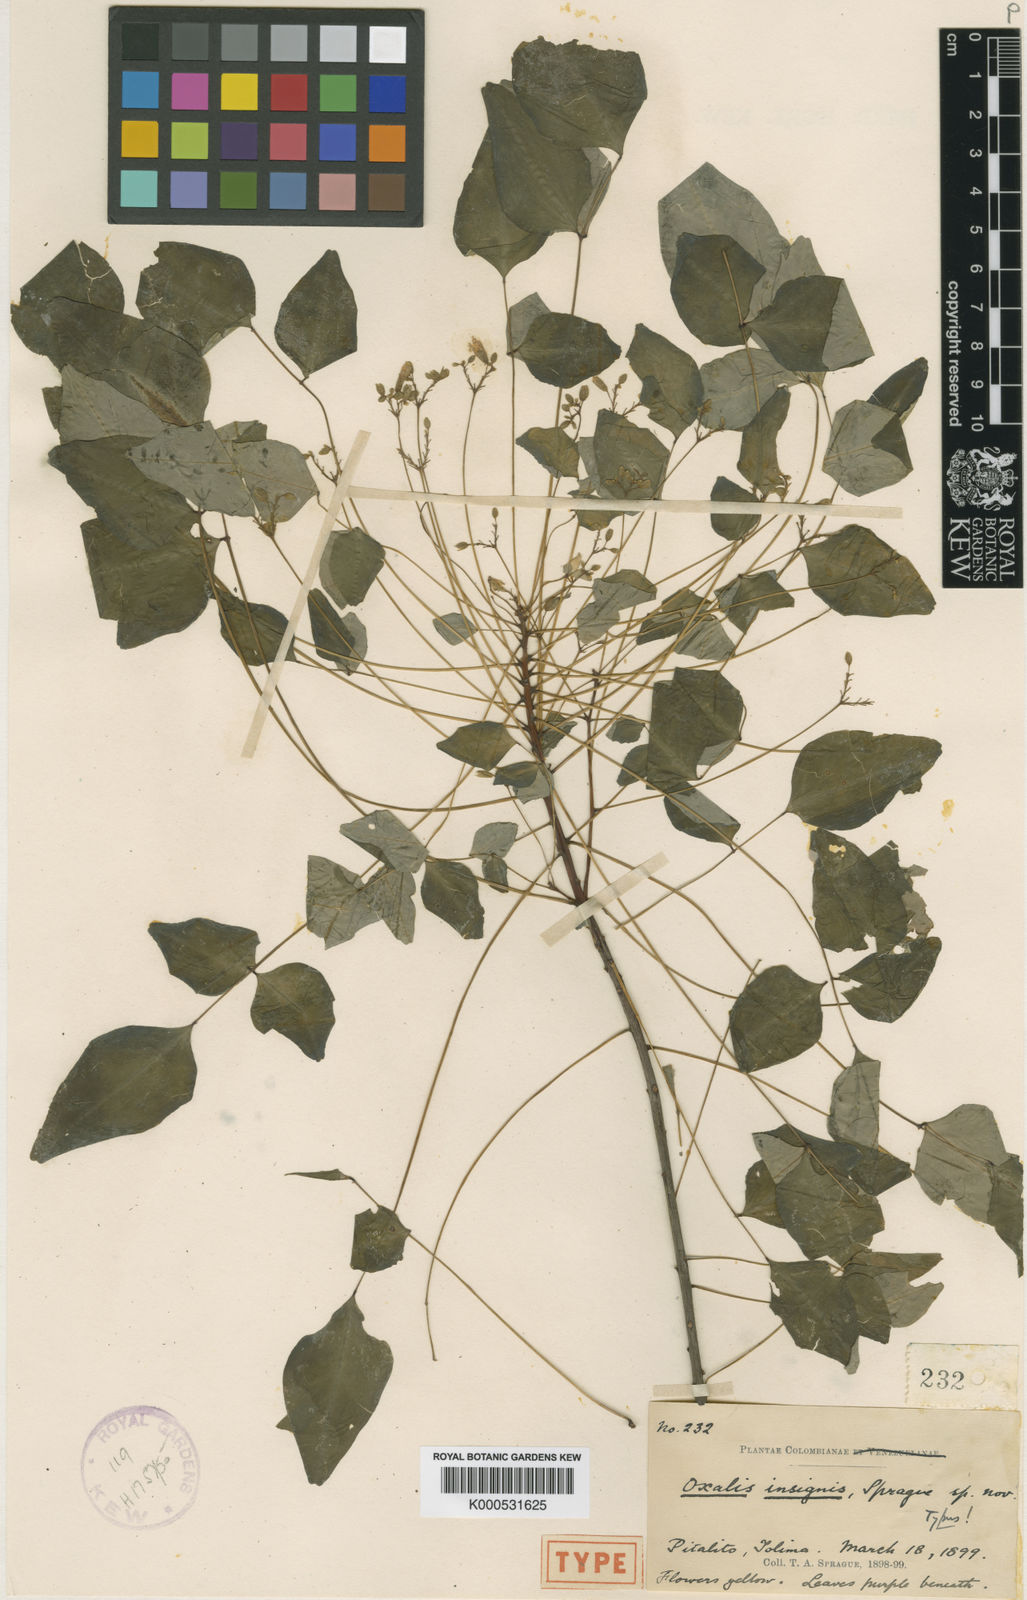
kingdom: Plantae
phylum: Tracheophyta
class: Magnoliopsida
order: Oxalidales
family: Oxalidaceae
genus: Oxalis
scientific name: Oxalis hedysaroides
